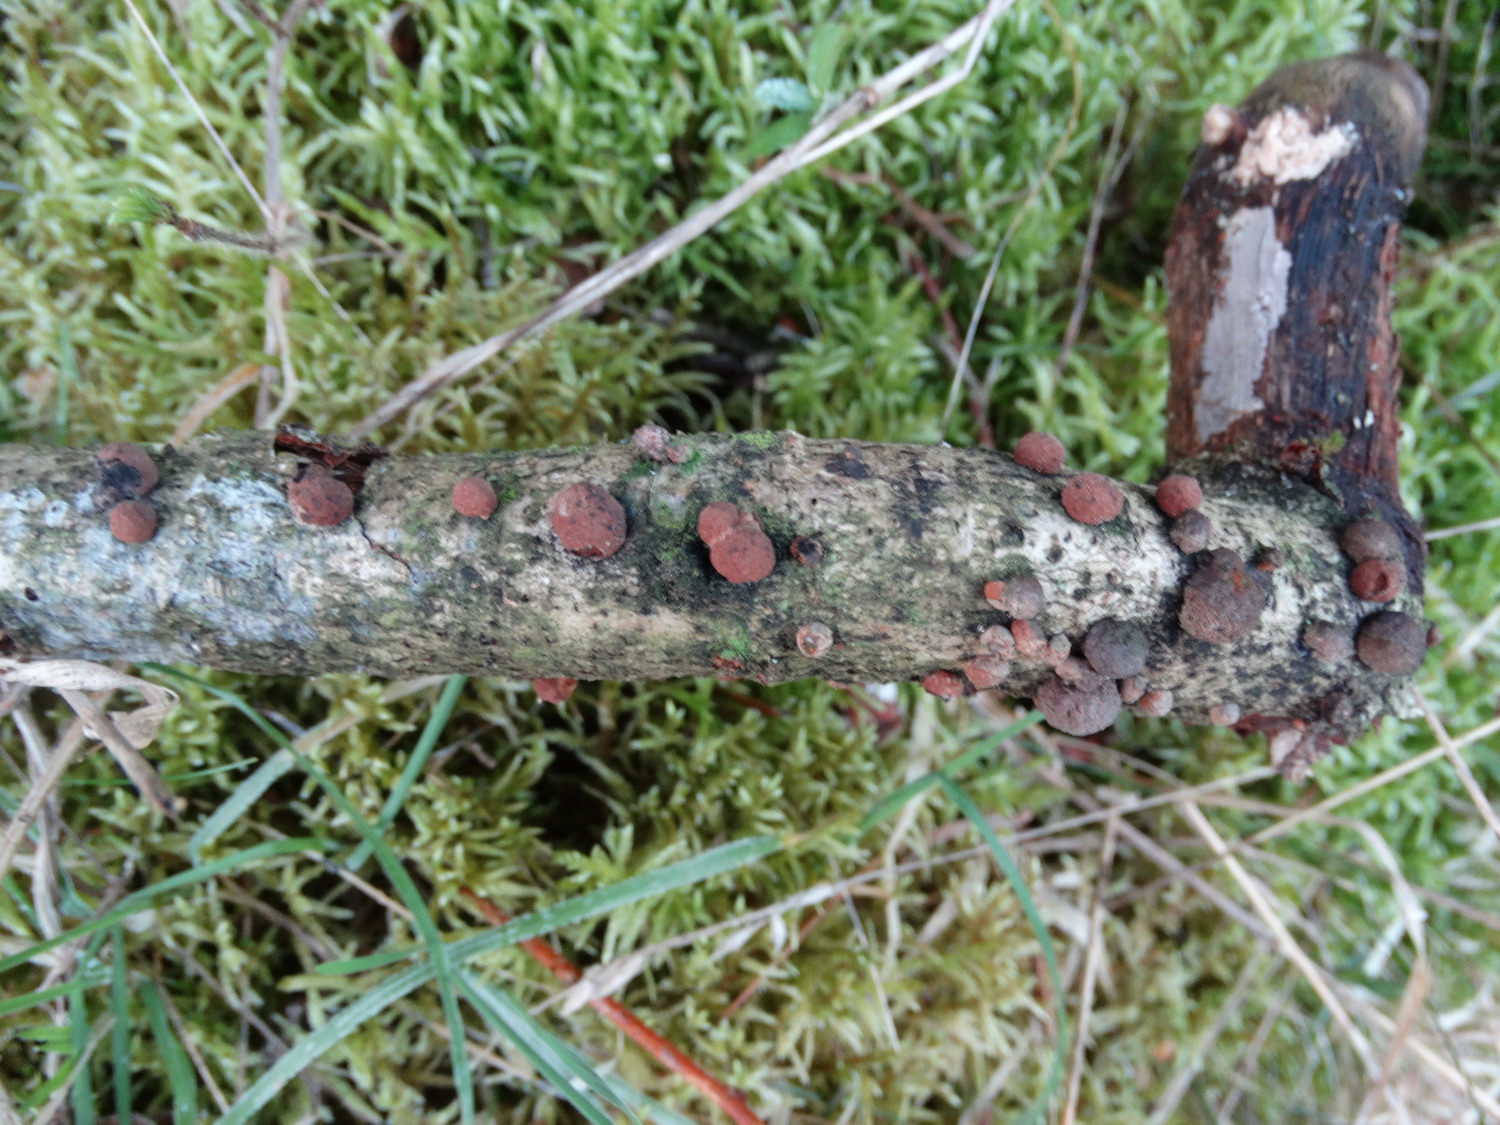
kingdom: Fungi
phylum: Ascomycota
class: Sordariomycetes
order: Xylariales
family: Hypoxylaceae
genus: Hypoxylon
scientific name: Hypoxylon howeanum
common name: halvkugleformet kulbær
